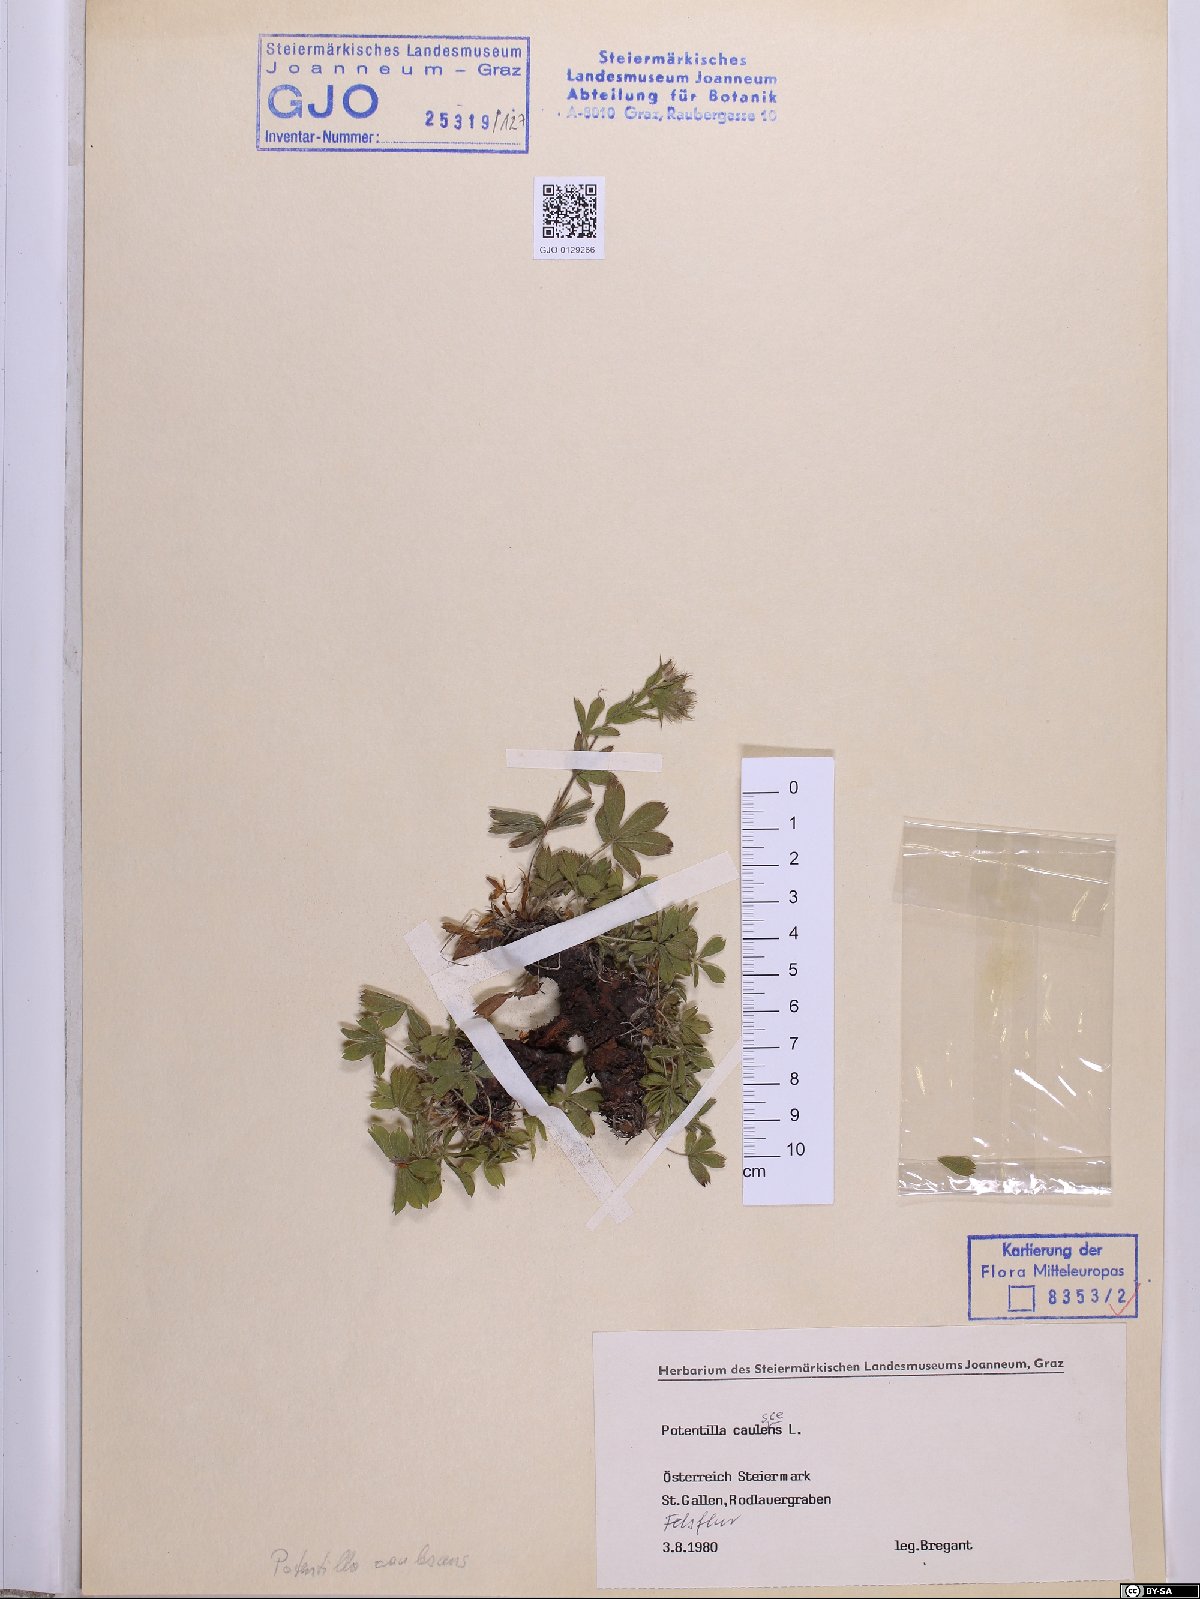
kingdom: Plantae
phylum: Tracheophyta
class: Magnoliopsida
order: Rosales
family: Rosaceae
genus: Potentilla
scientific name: Potentilla caulescens
